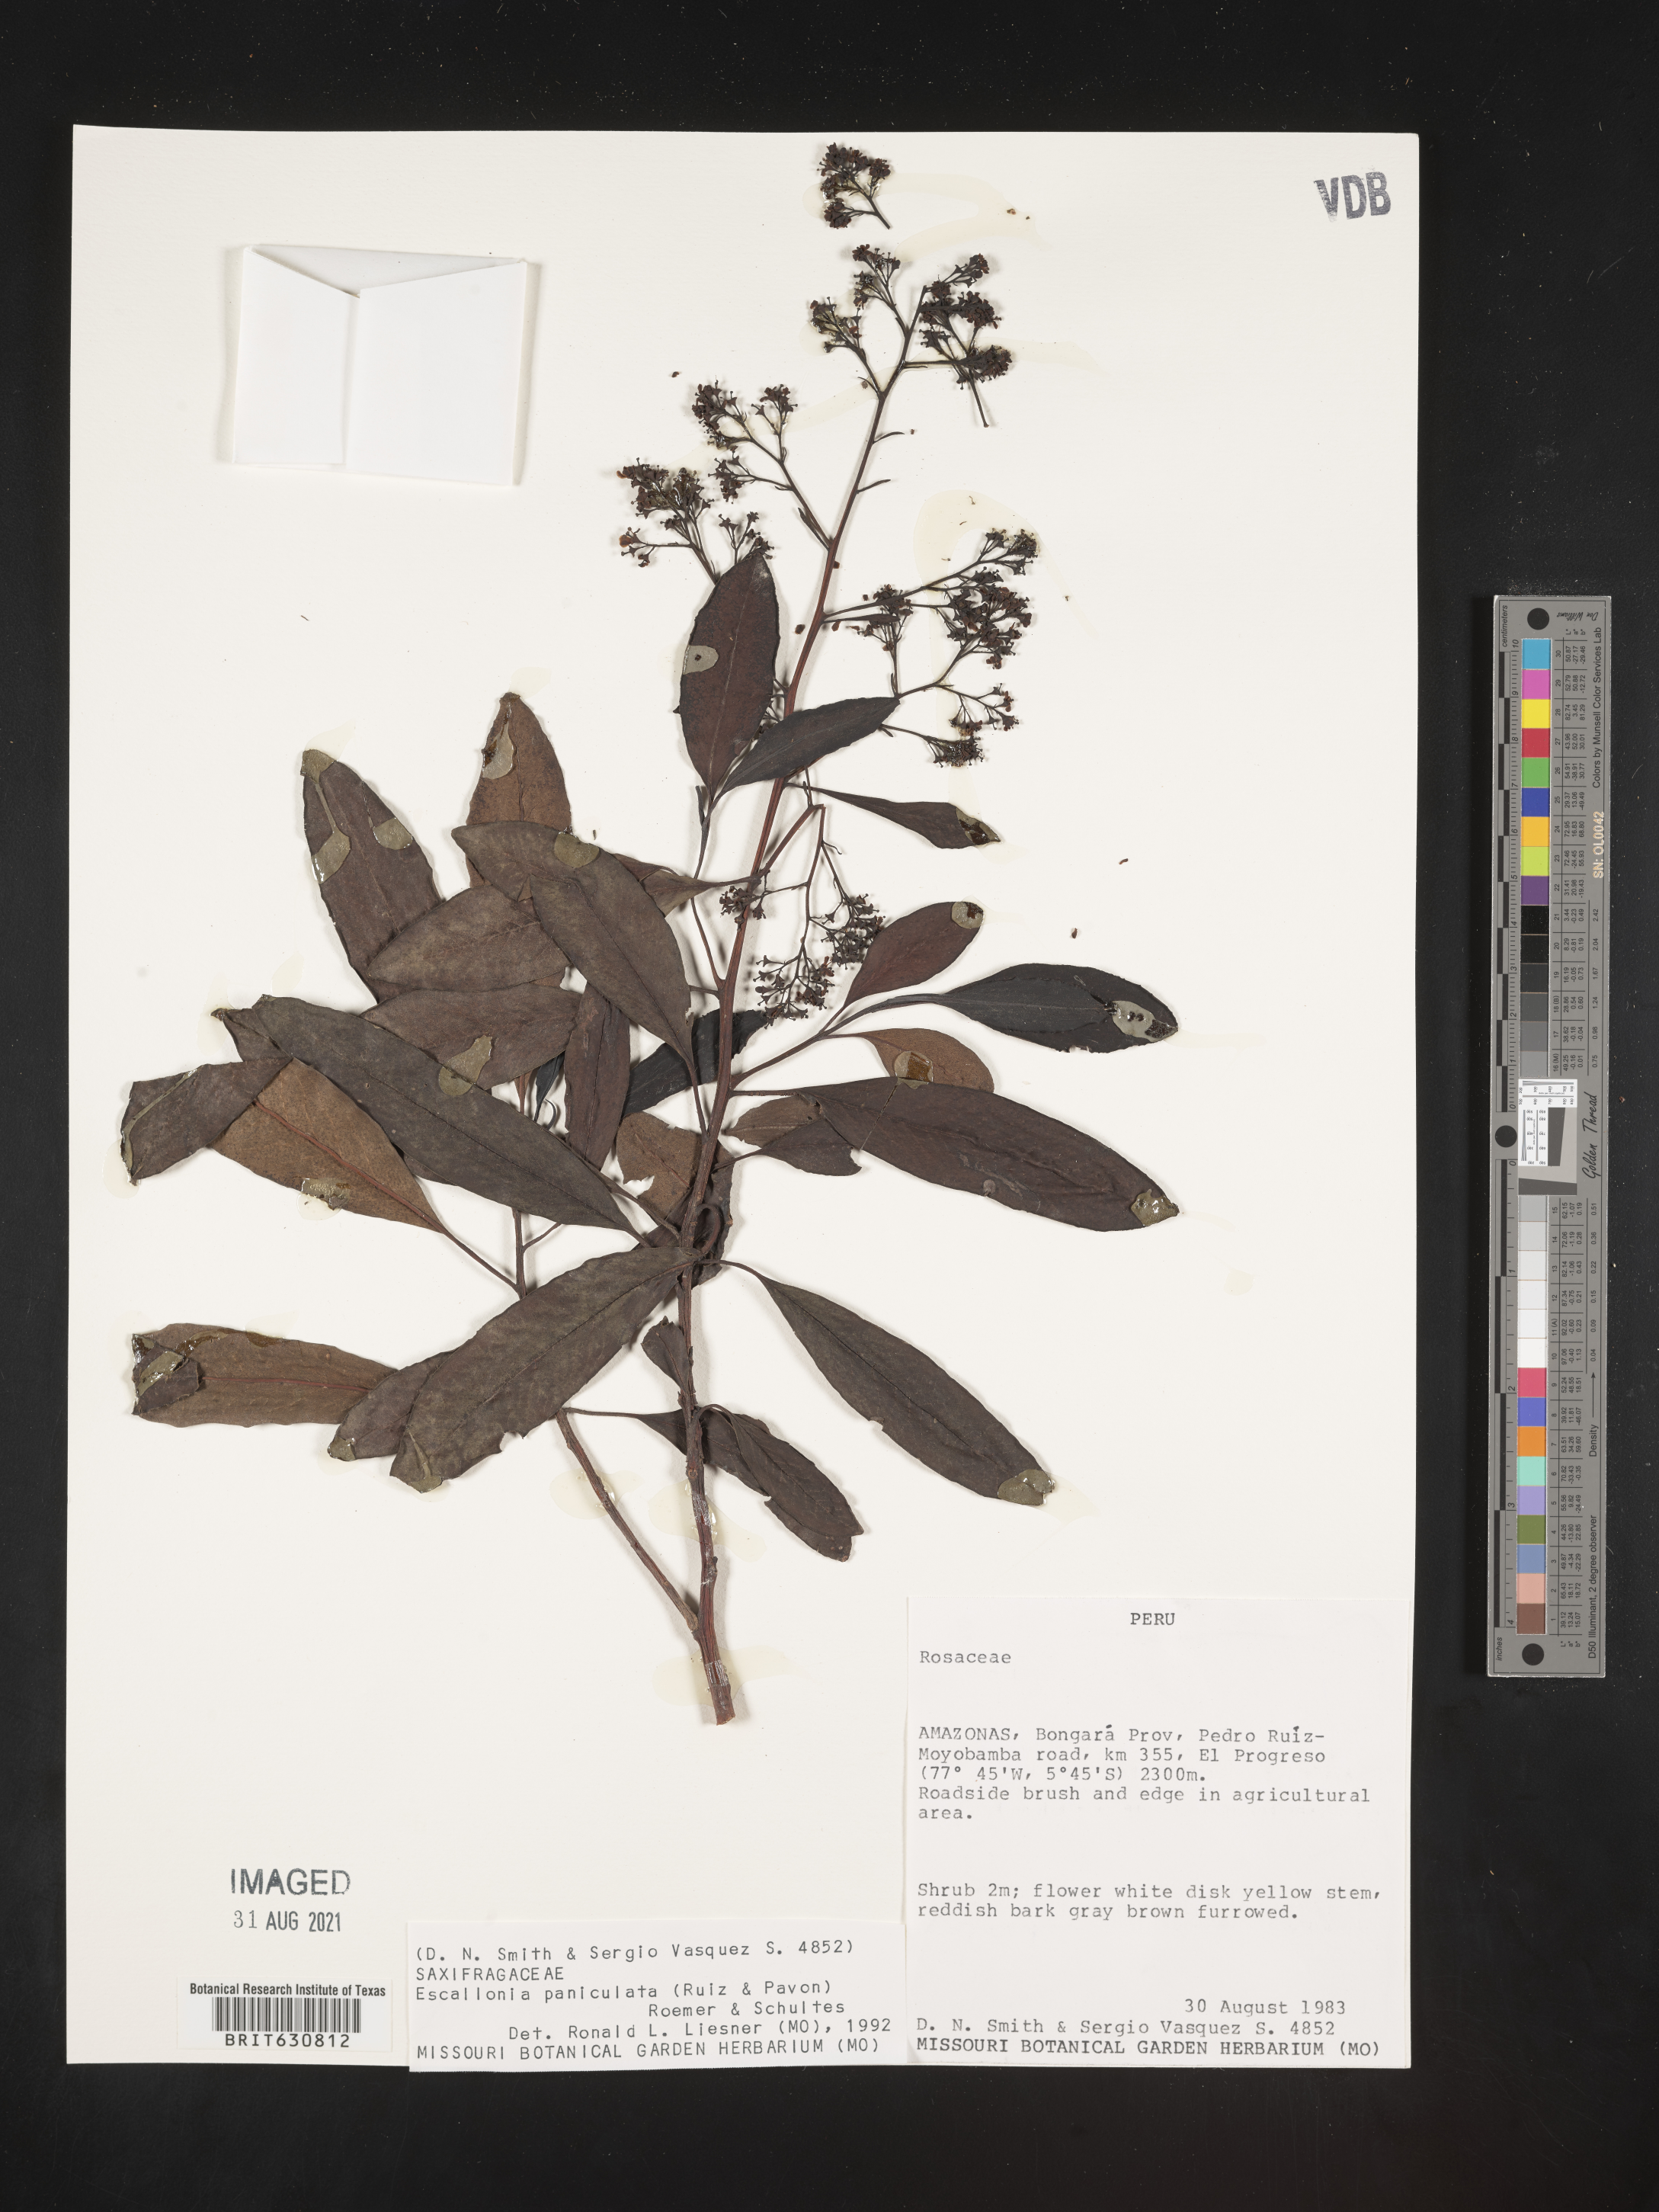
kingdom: Plantae
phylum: Tracheophyta
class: Magnoliopsida
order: Escalloniales
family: Escalloniaceae
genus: Escallonia
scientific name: Escallonia
